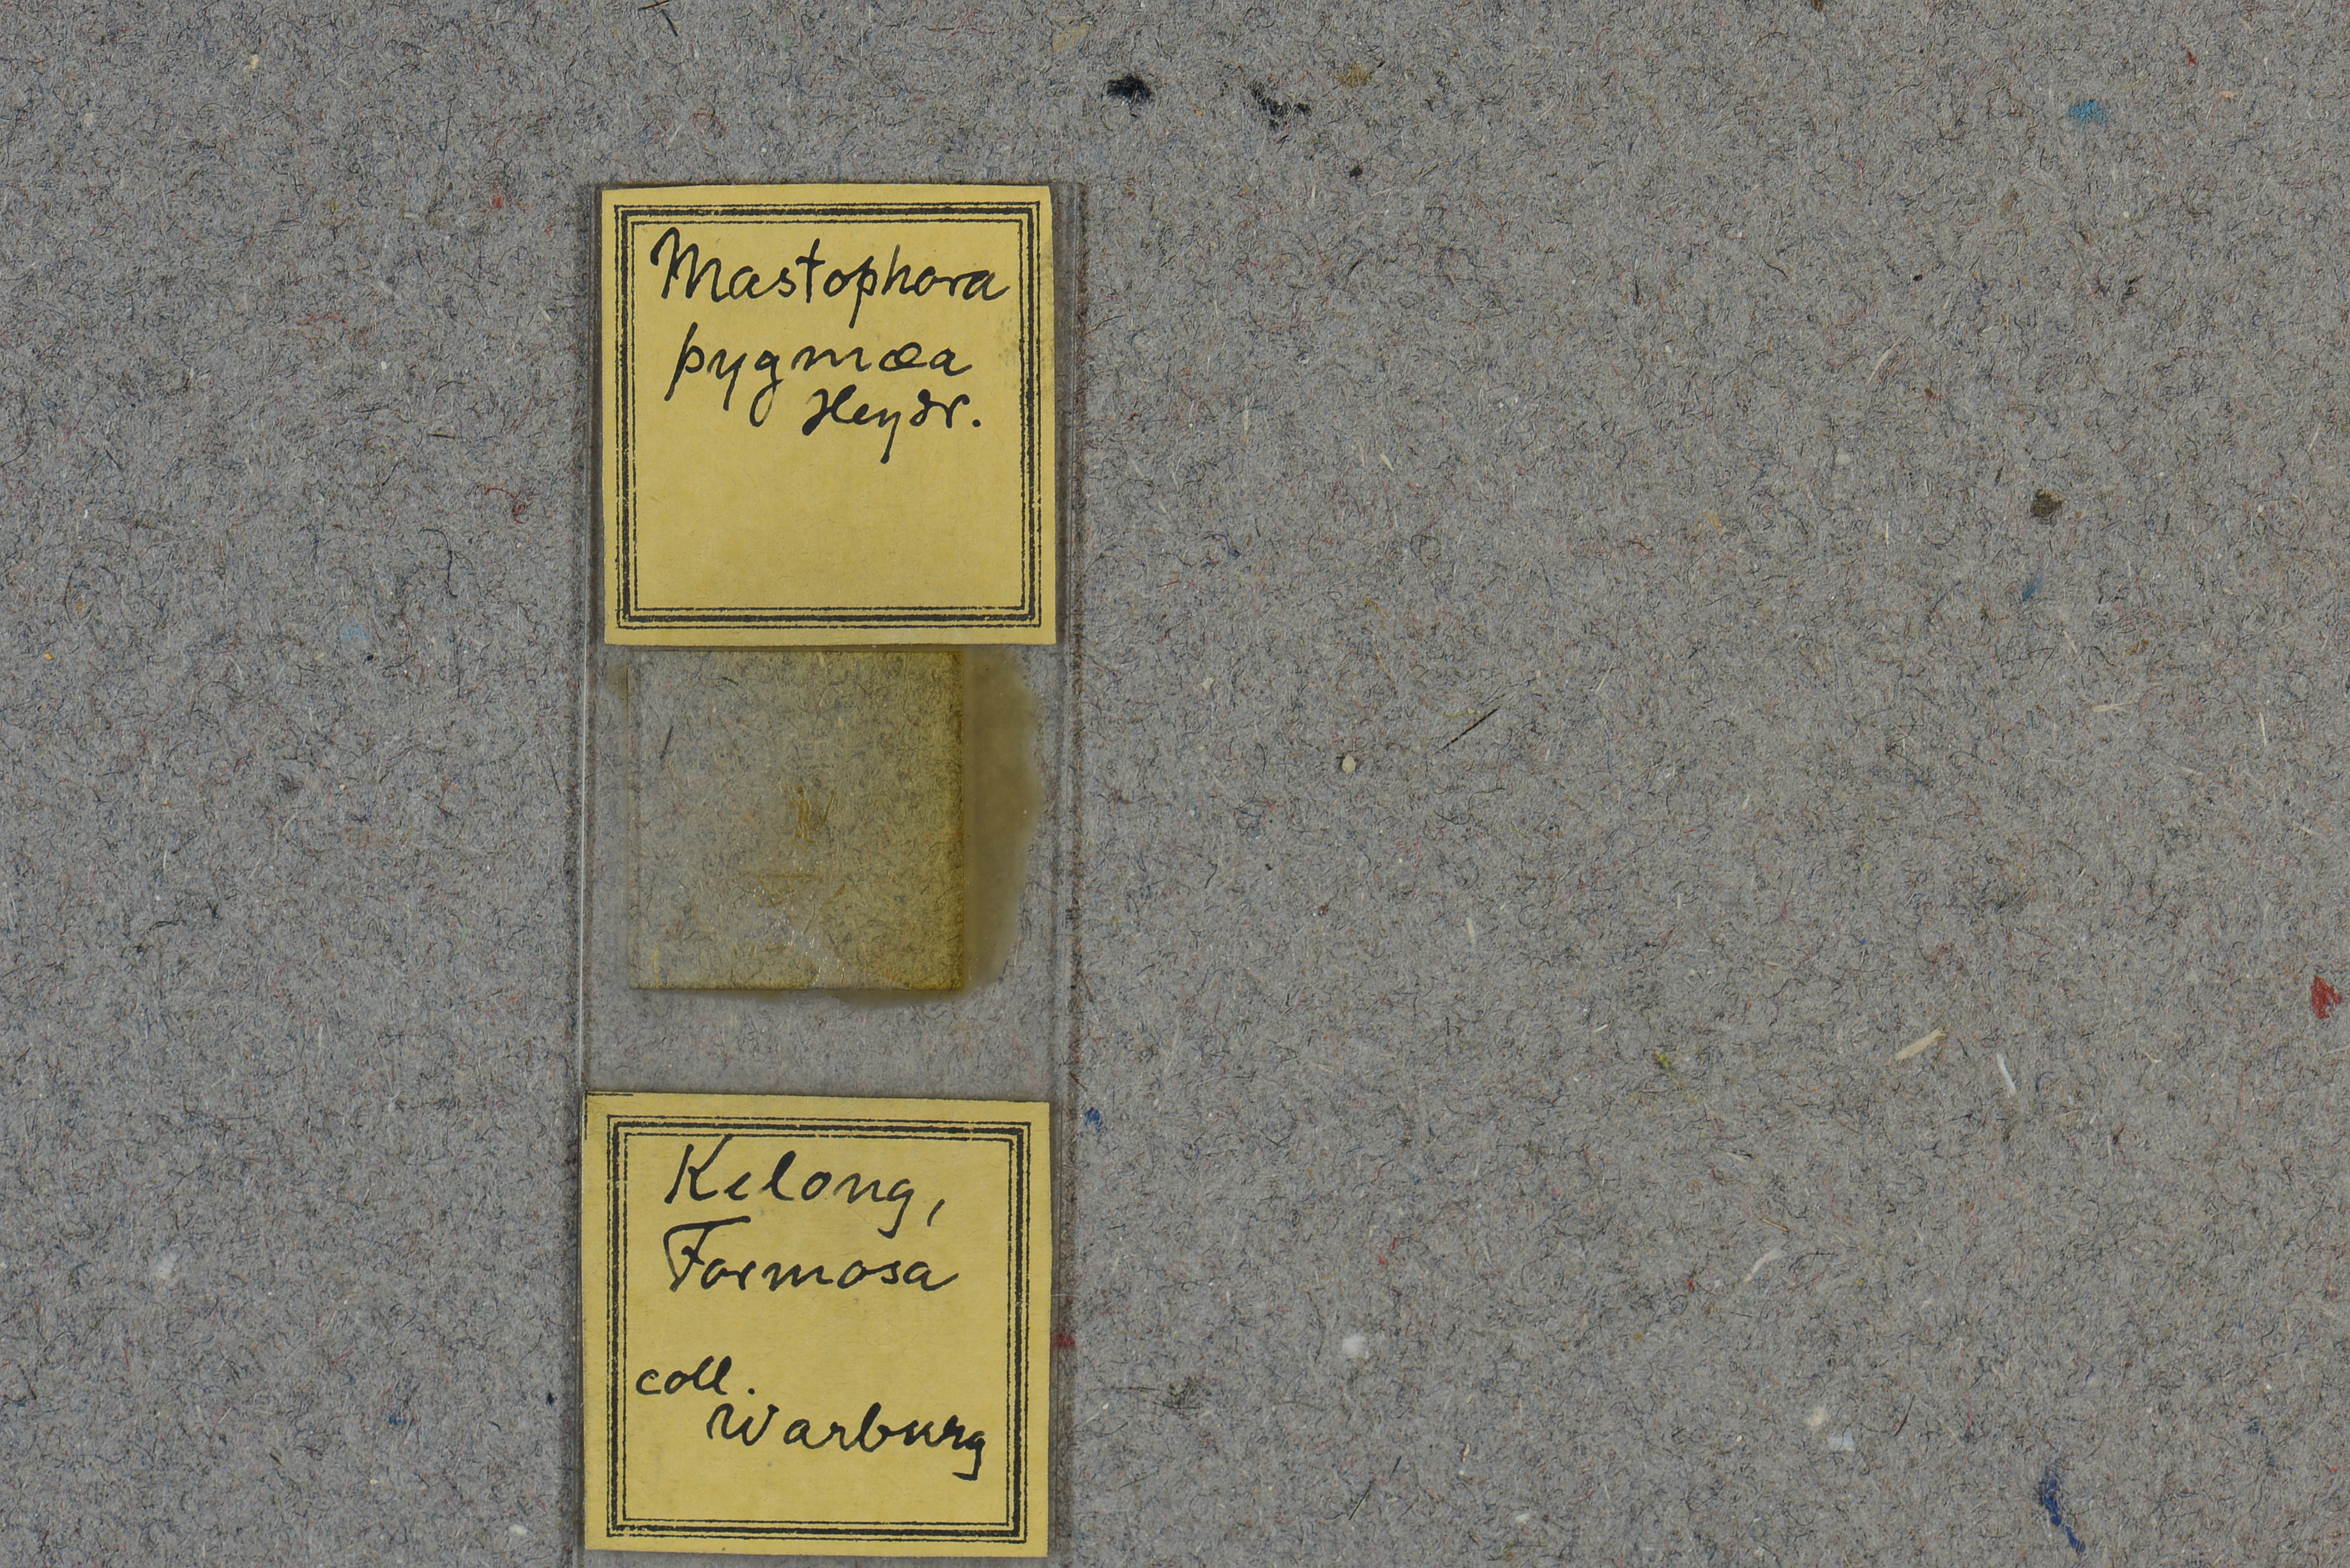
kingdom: Plantae
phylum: Rhodophyta
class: Florideophyceae
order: Corallinales
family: Spongitaceae
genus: Spongites
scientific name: Spongites yendoi
